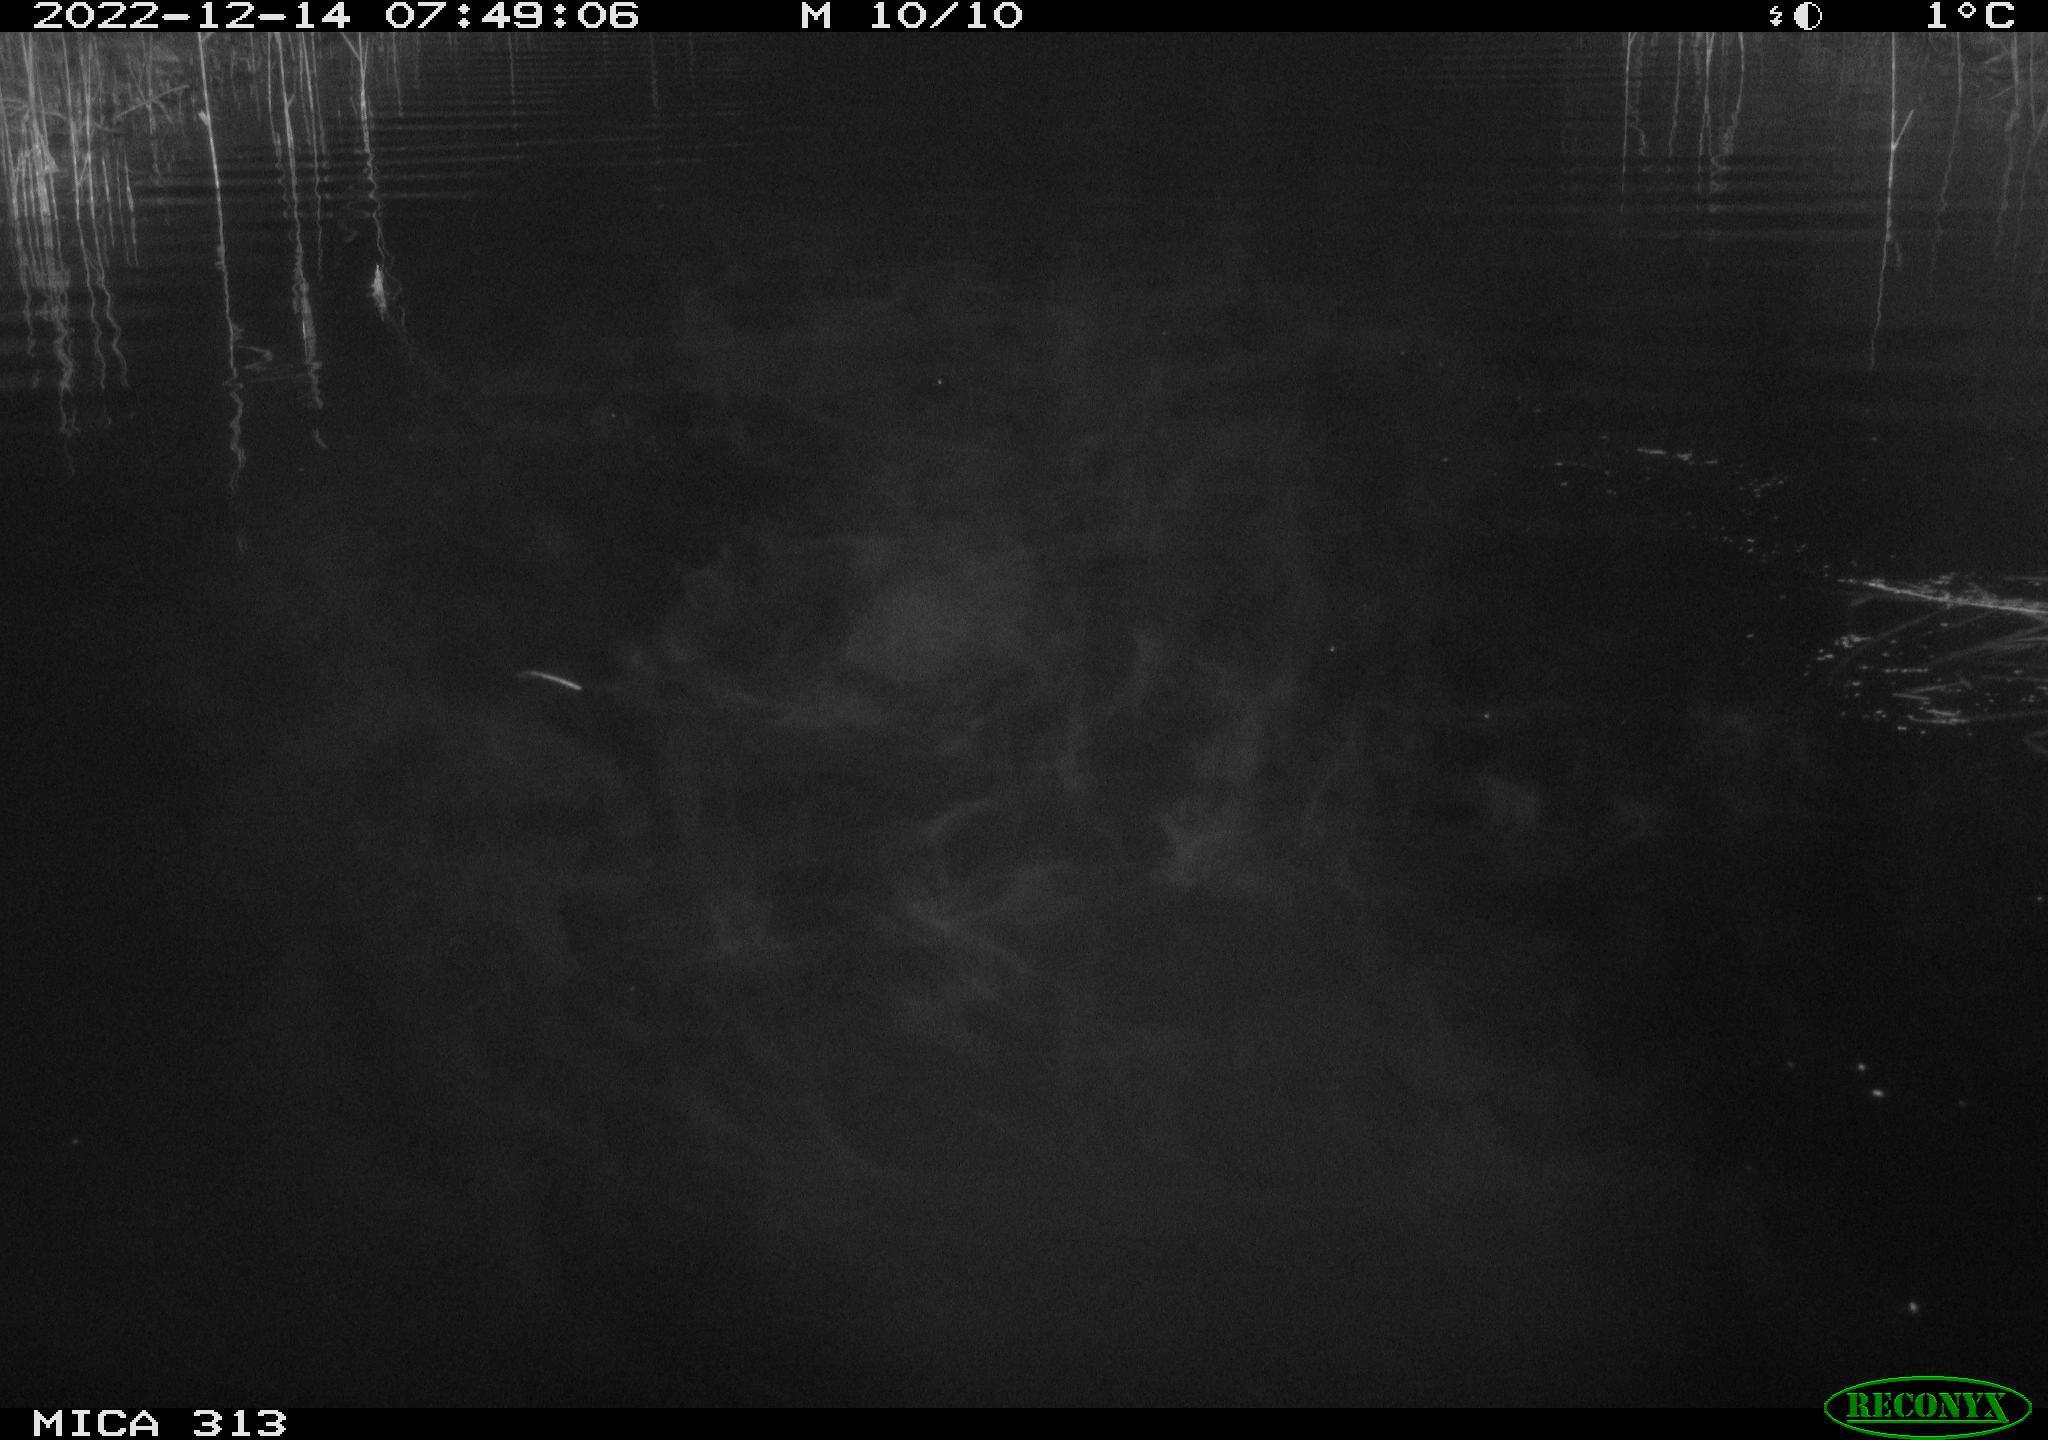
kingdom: Animalia
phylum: Chordata
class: Aves
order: Gruiformes
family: Rallidae
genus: Gallinula
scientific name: Gallinula chloropus
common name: Common moorhen
